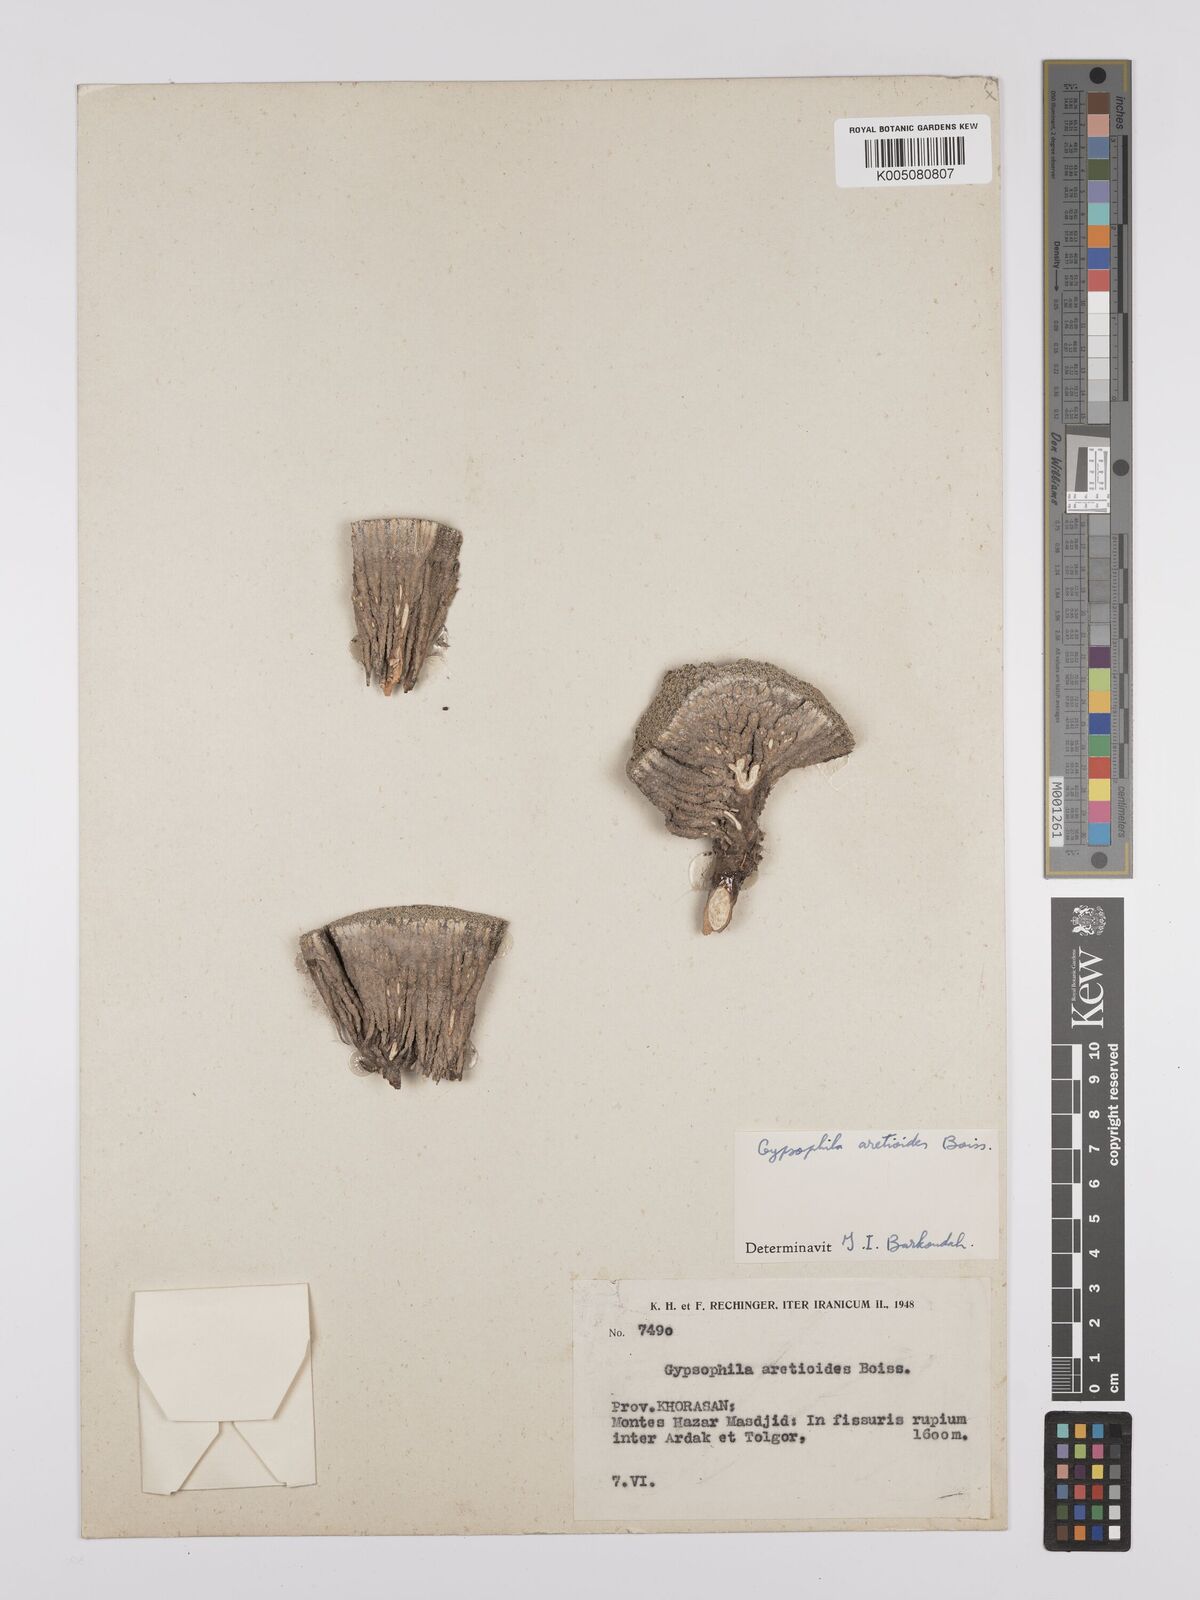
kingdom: Plantae
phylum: Tracheophyta
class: Magnoliopsida
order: Caryophyllales
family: Caryophyllaceae
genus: Gypsophila
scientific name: Gypsophila aretioides
